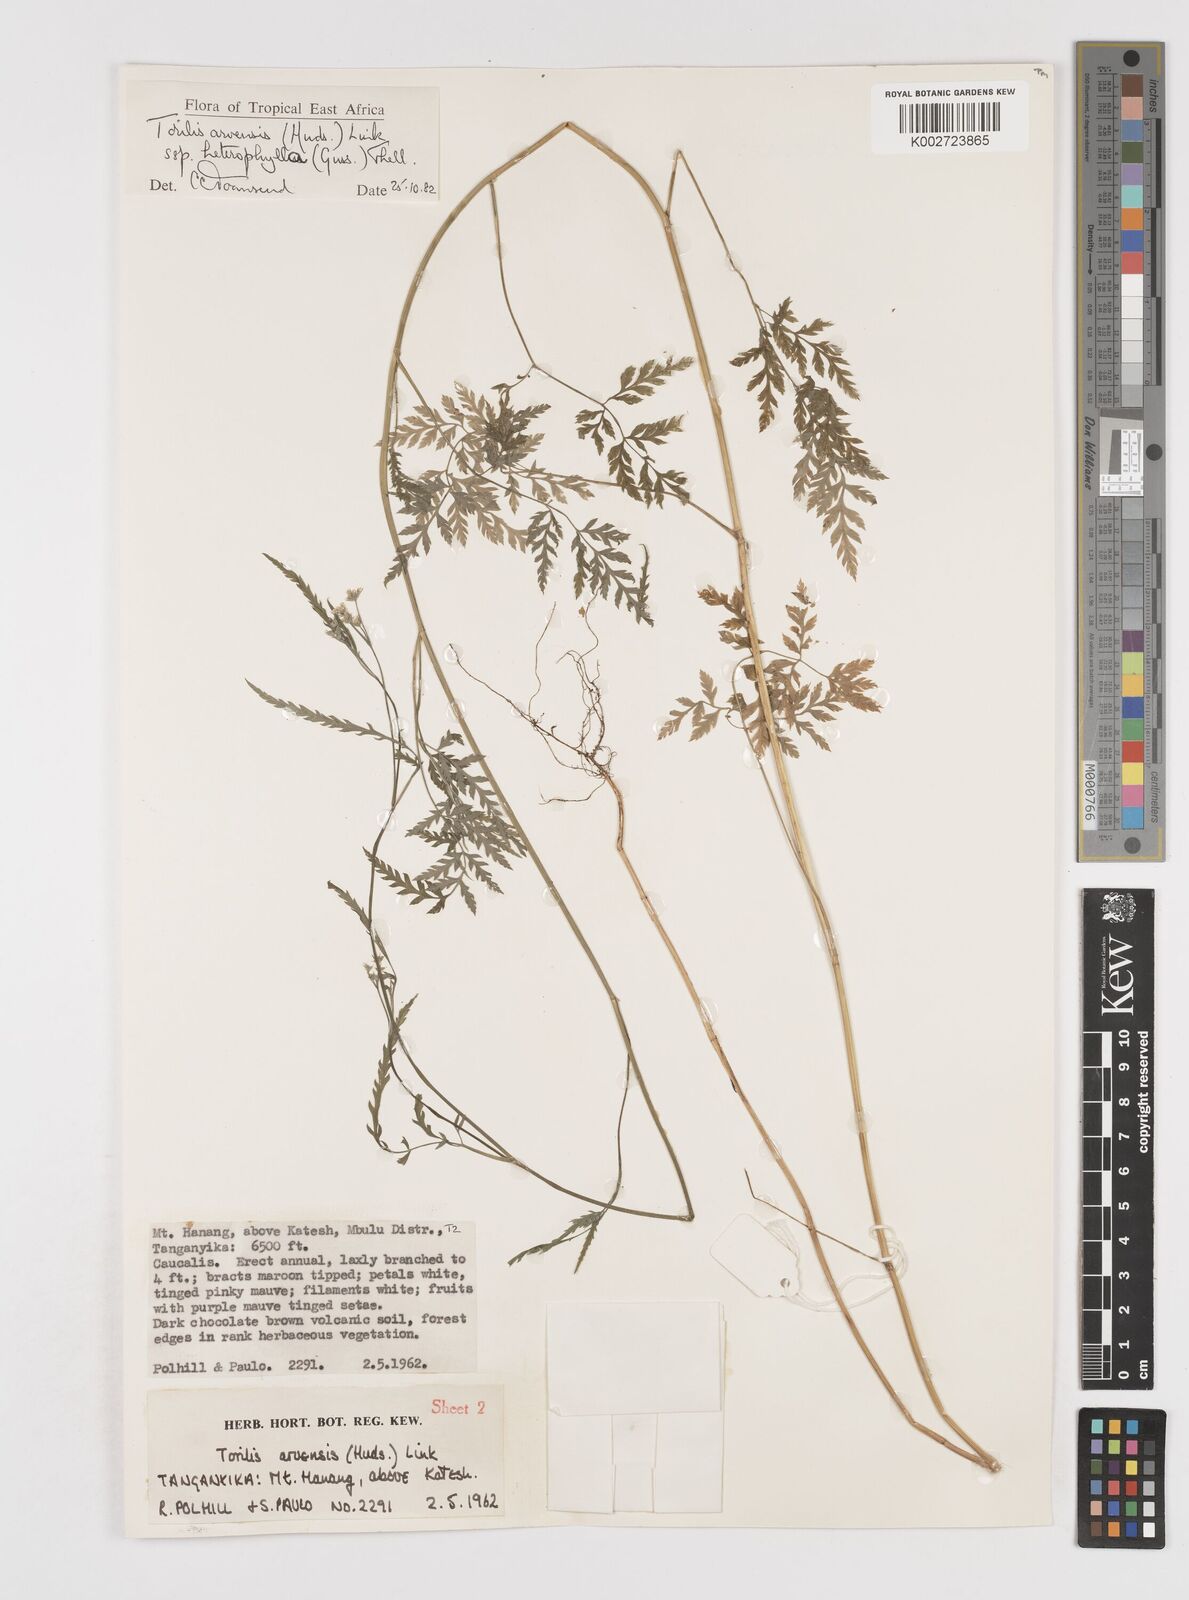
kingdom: Plantae
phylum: Tracheophyta
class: Magnoliopsida
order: Apiales
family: Apiaceae
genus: Torilis
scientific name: Torilis arvensis
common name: Spreading hedge-parsley
